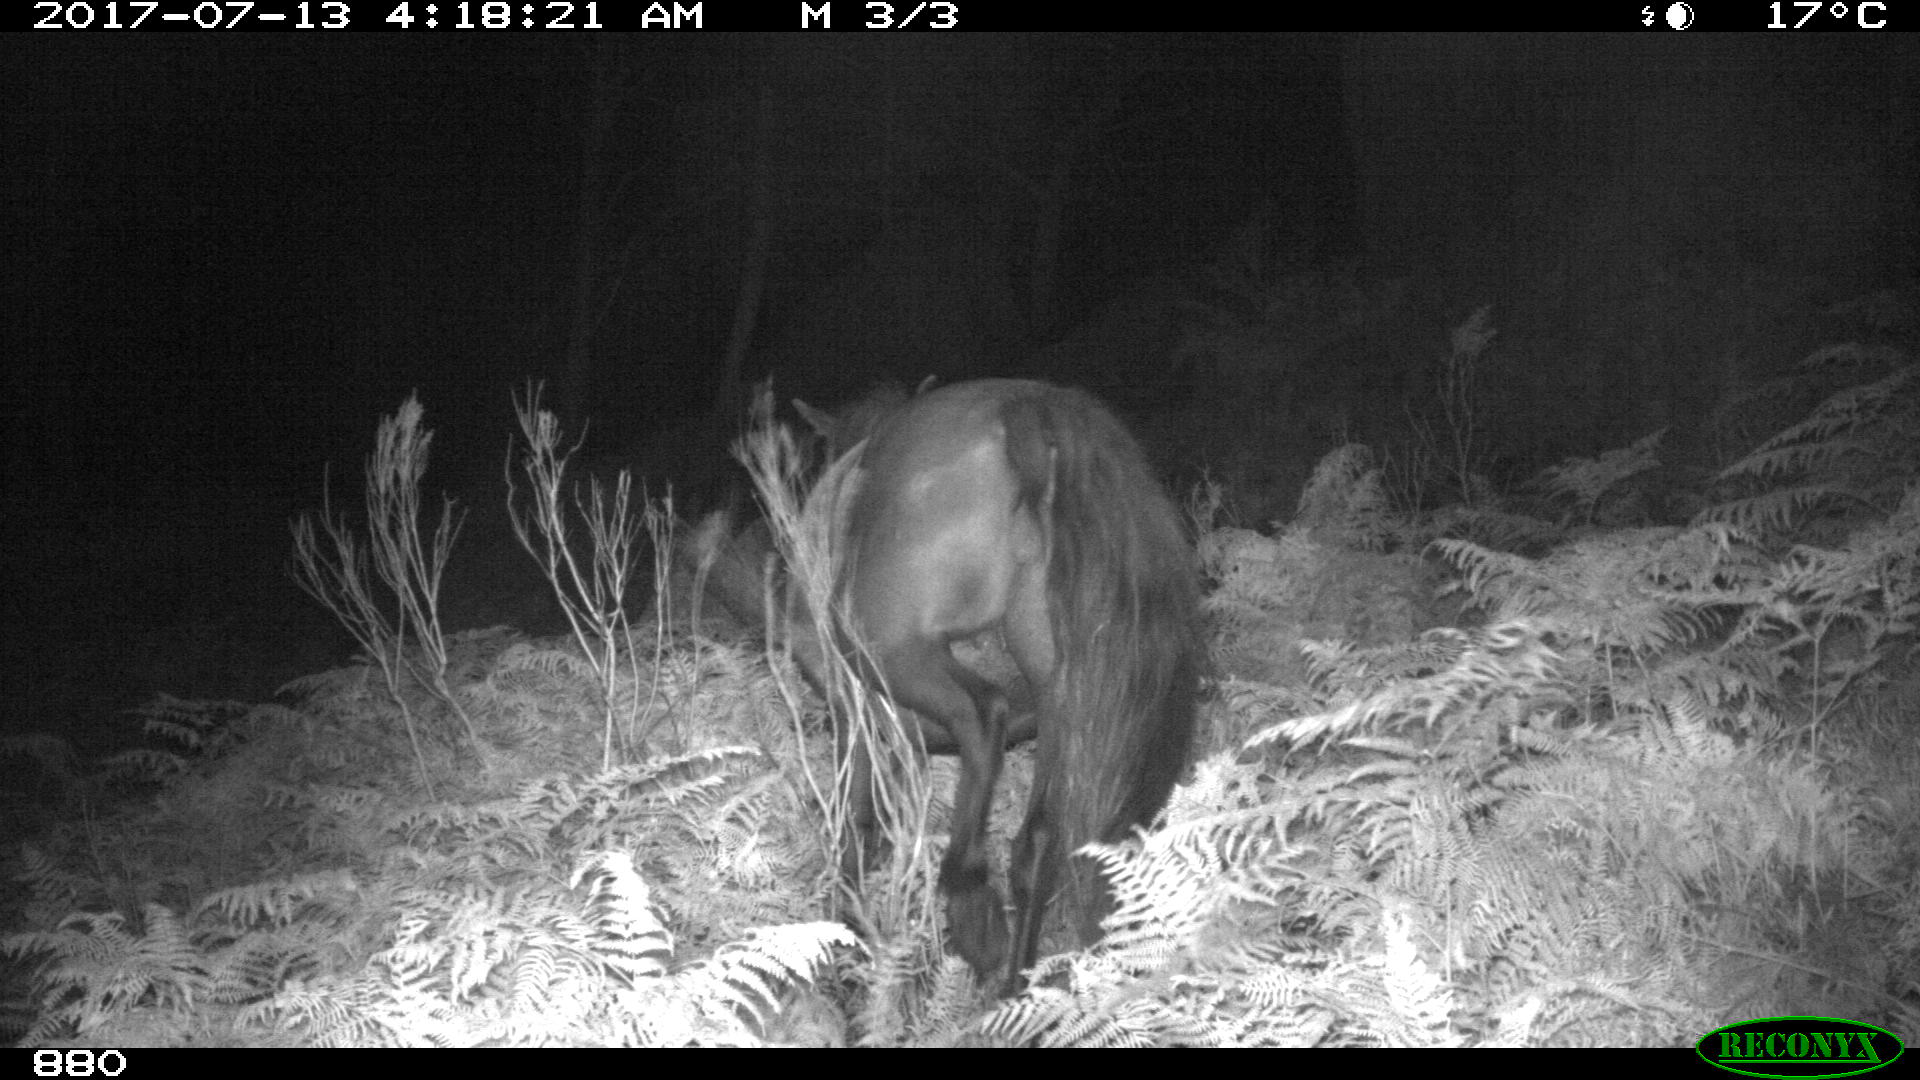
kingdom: Animalia
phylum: Chordata
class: Mammalia
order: Perissodactyla
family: Equidae
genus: Equus
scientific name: Equus caballus
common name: Horse
